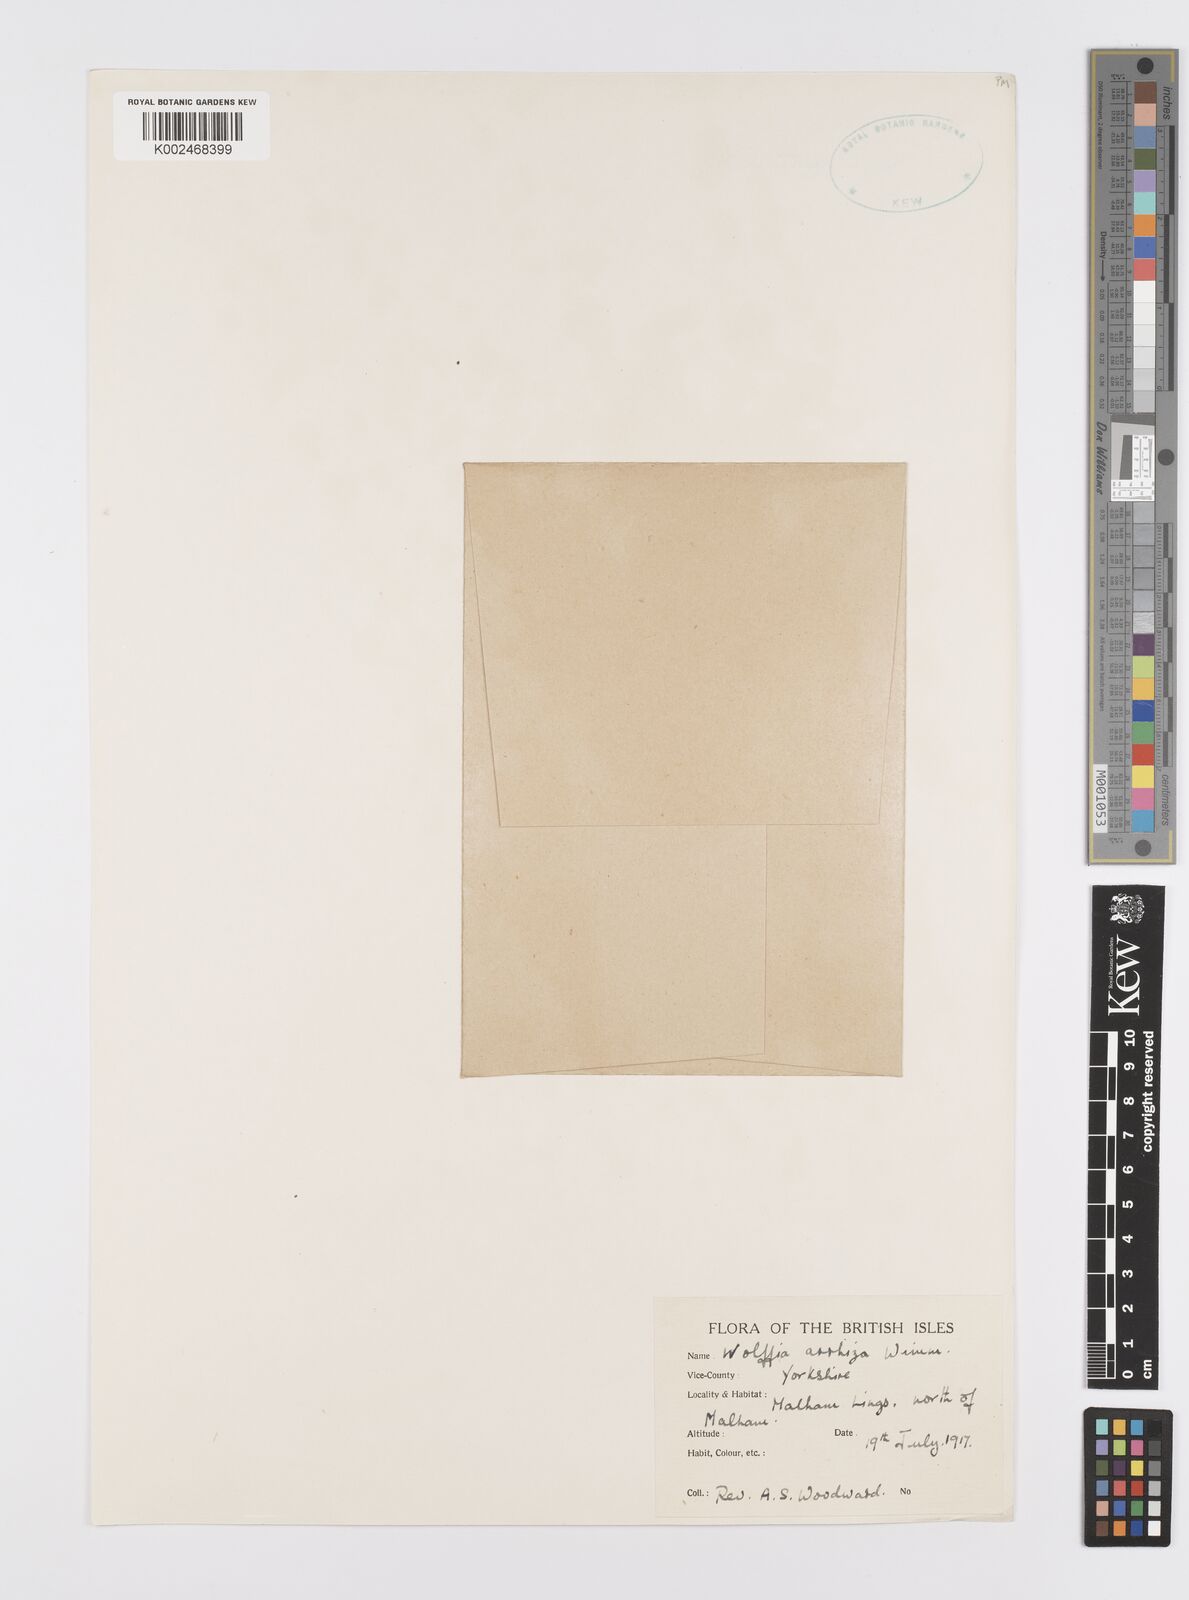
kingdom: Plantae
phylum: Tracheophyta
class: Liliopsida
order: Alismatales
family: Araceae
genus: Wolffia
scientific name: Wolffia arrhiza
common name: Rootless duckweed
